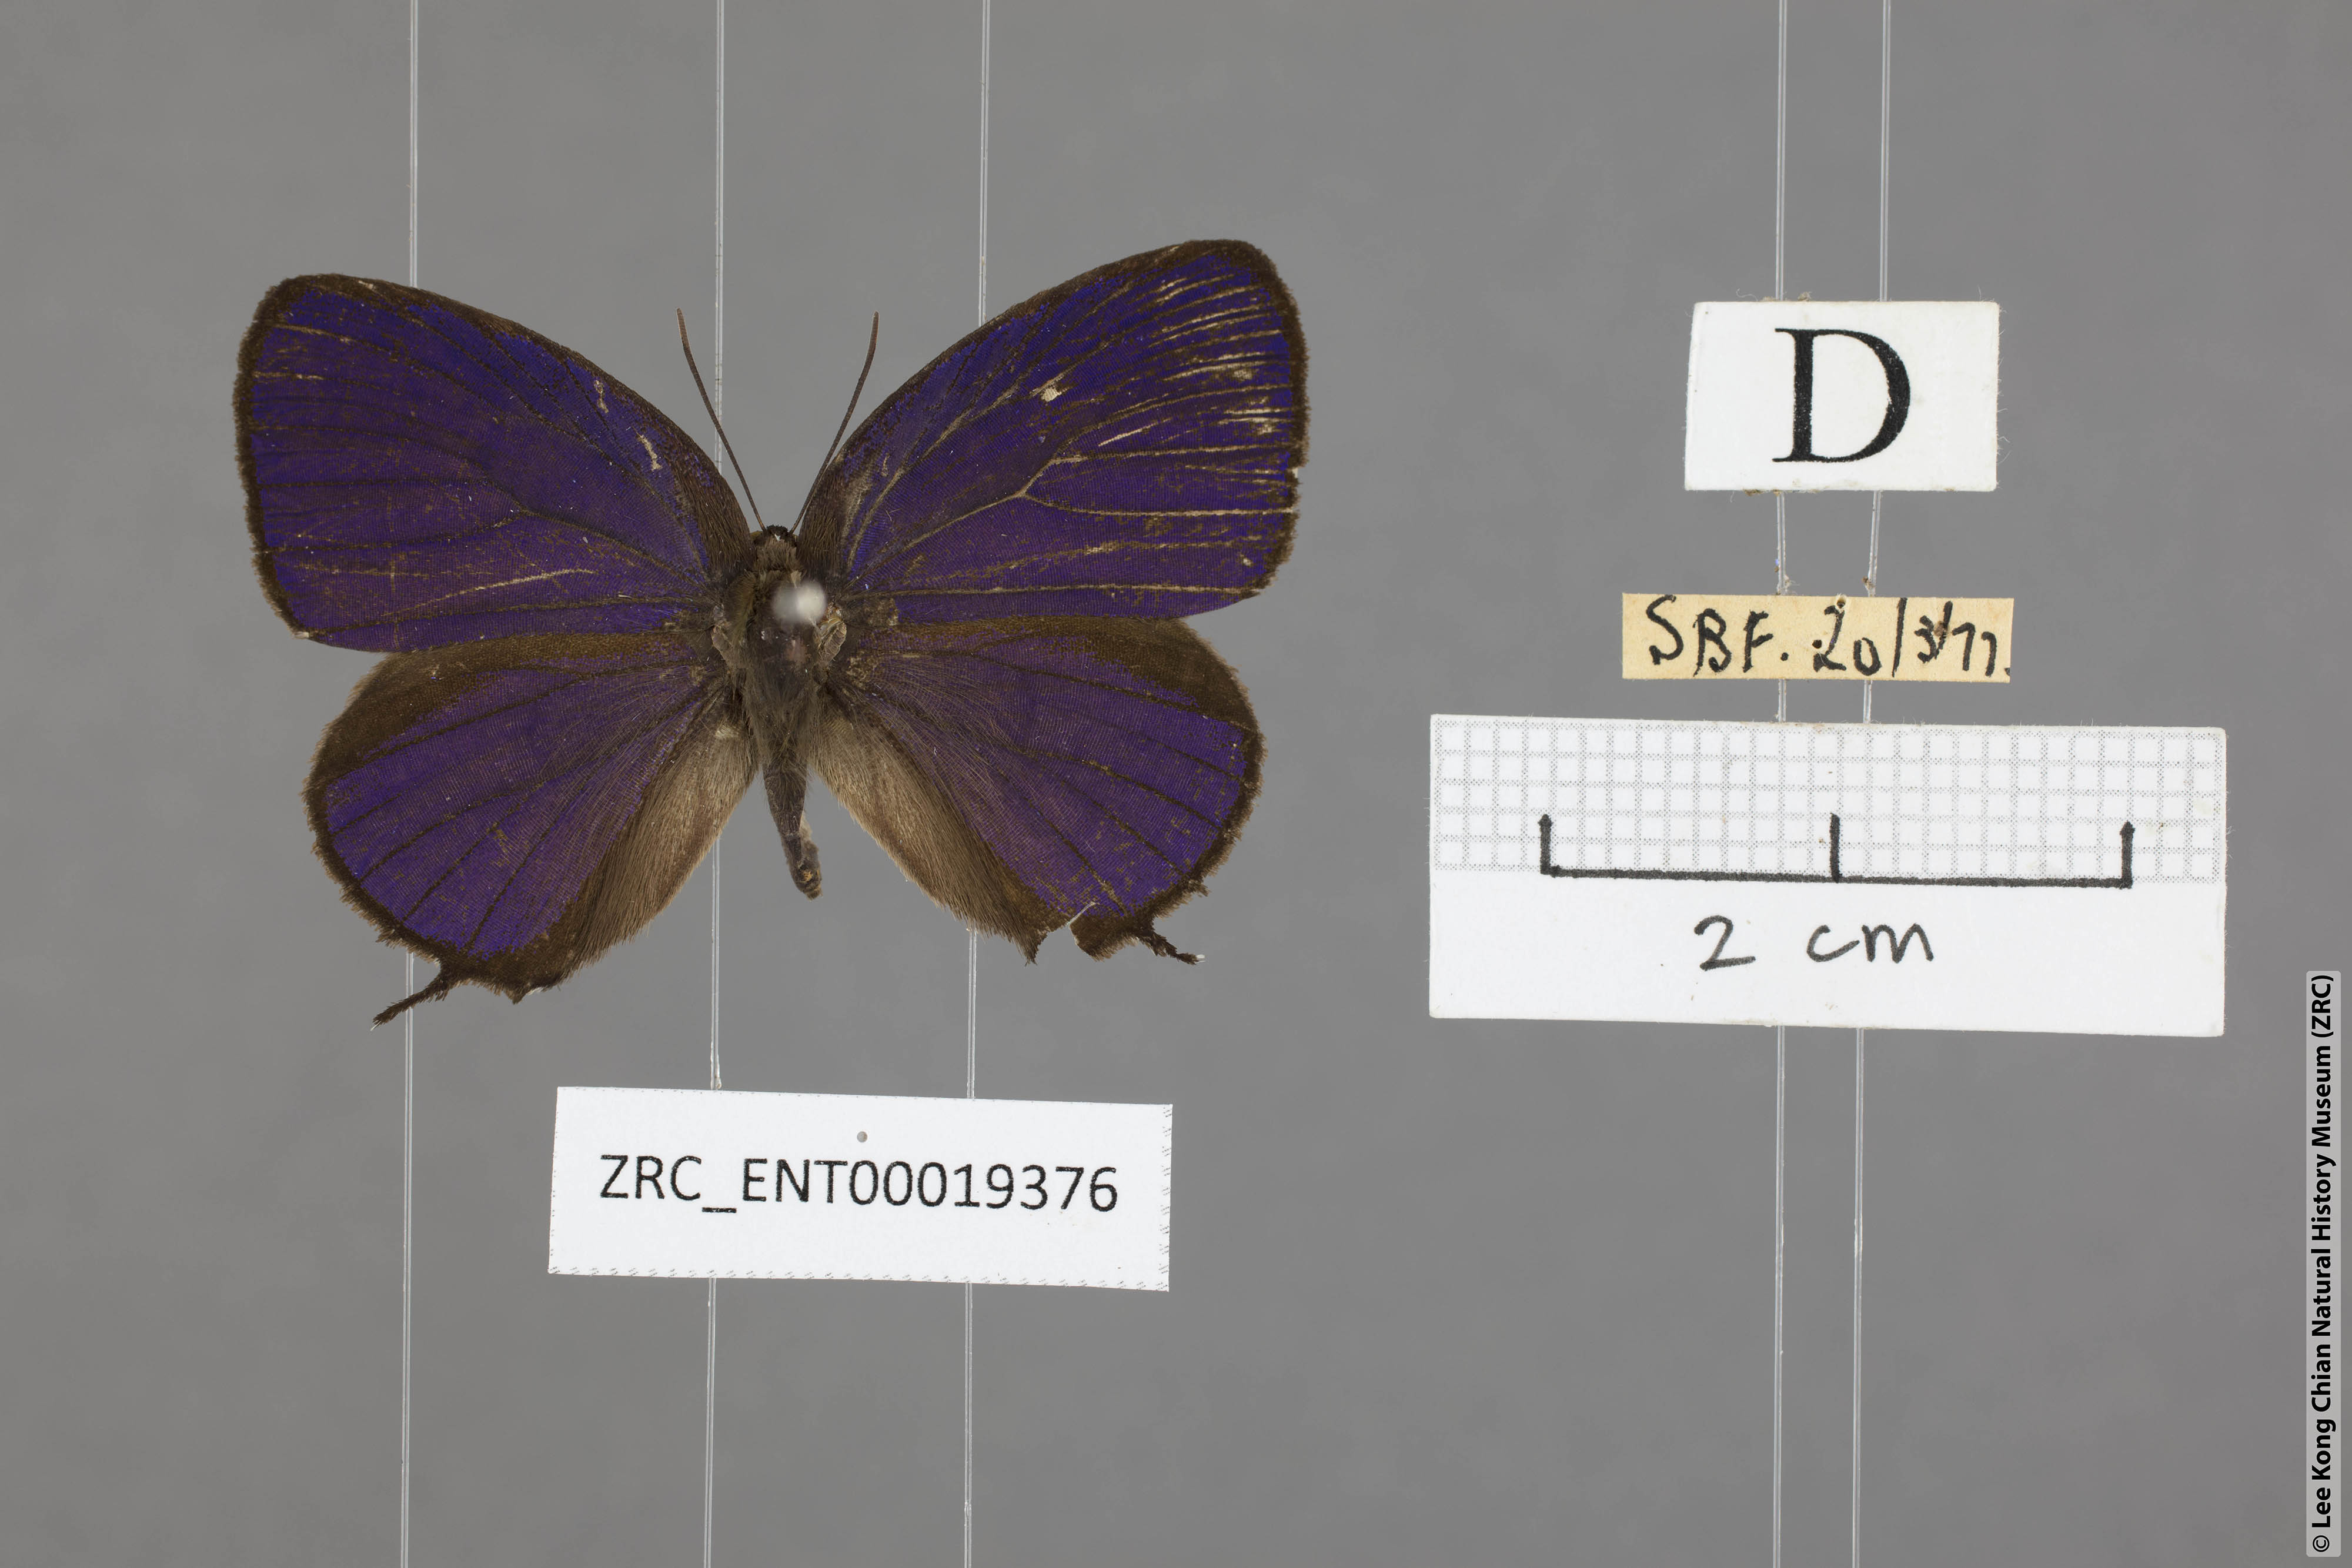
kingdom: Animalia
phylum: Arthropoda
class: Insecta
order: Lepidoptera
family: Lycaenidae
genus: Arhopala
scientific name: Arhopala delta
